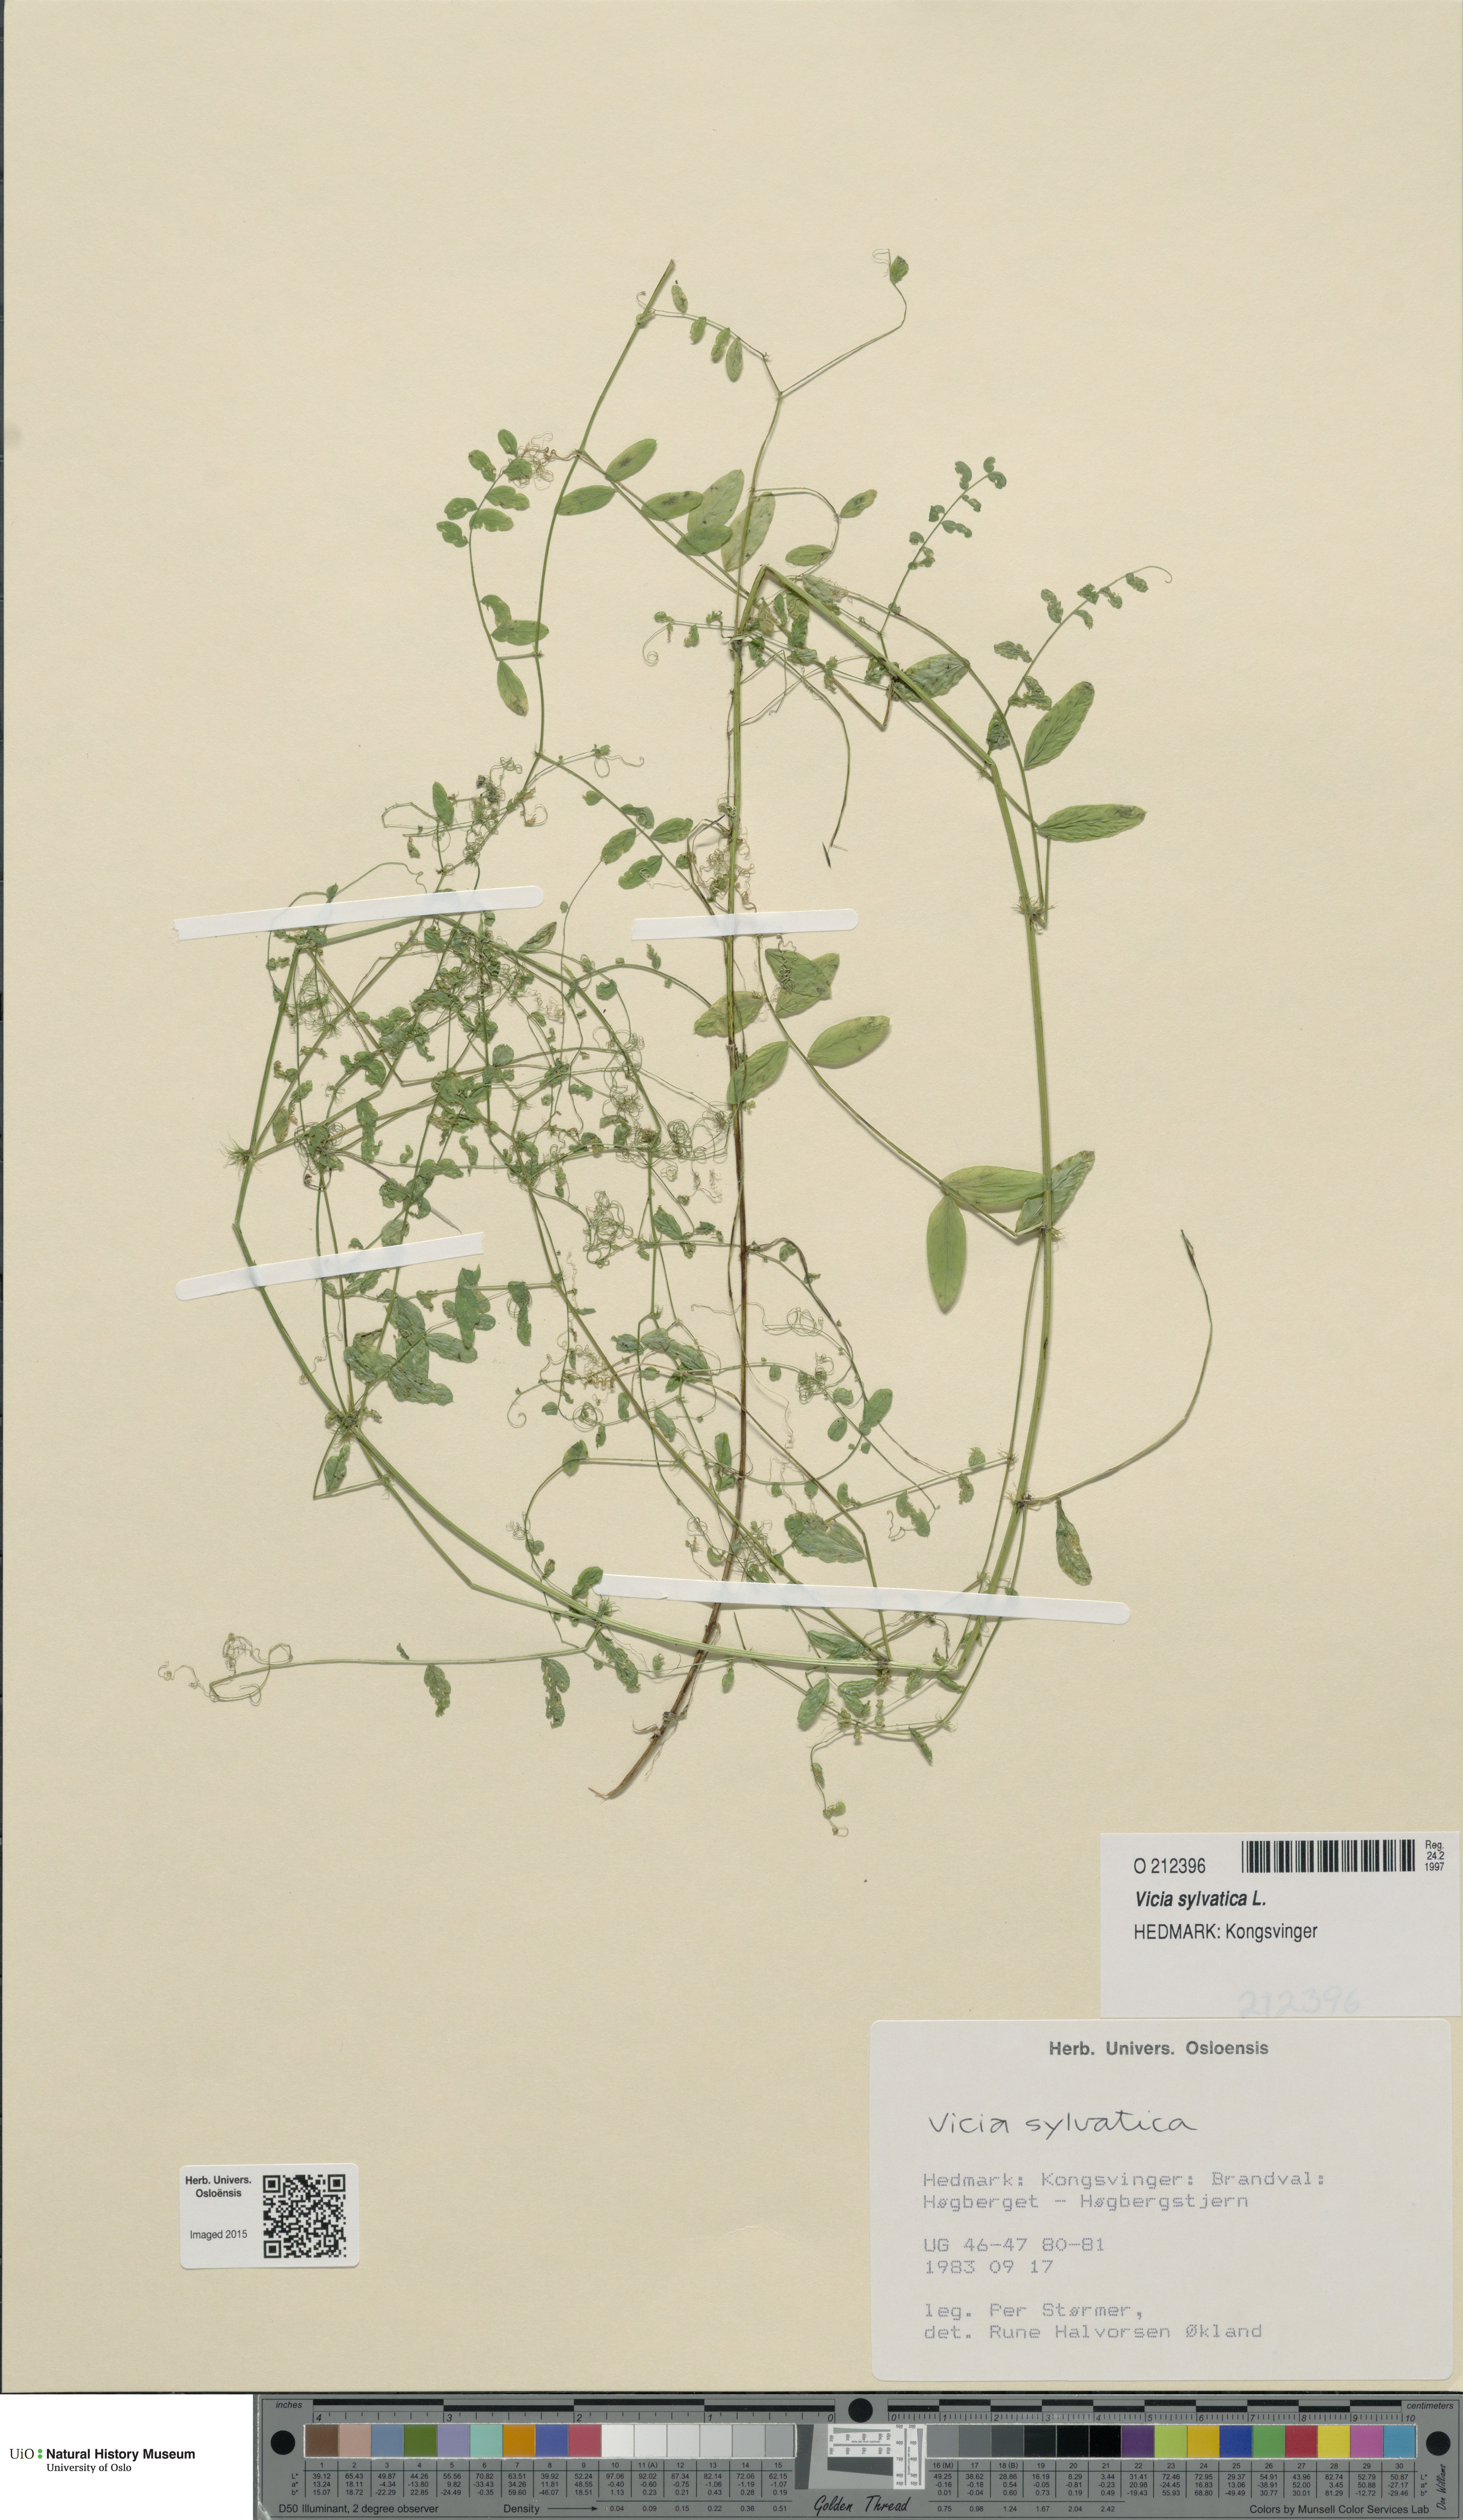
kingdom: Plantae
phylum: Tracheophyta
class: Magnoliopsida
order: Fabales
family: Fabaceae
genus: Vicia
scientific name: Vicia sylvatica
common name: Wood vetch
